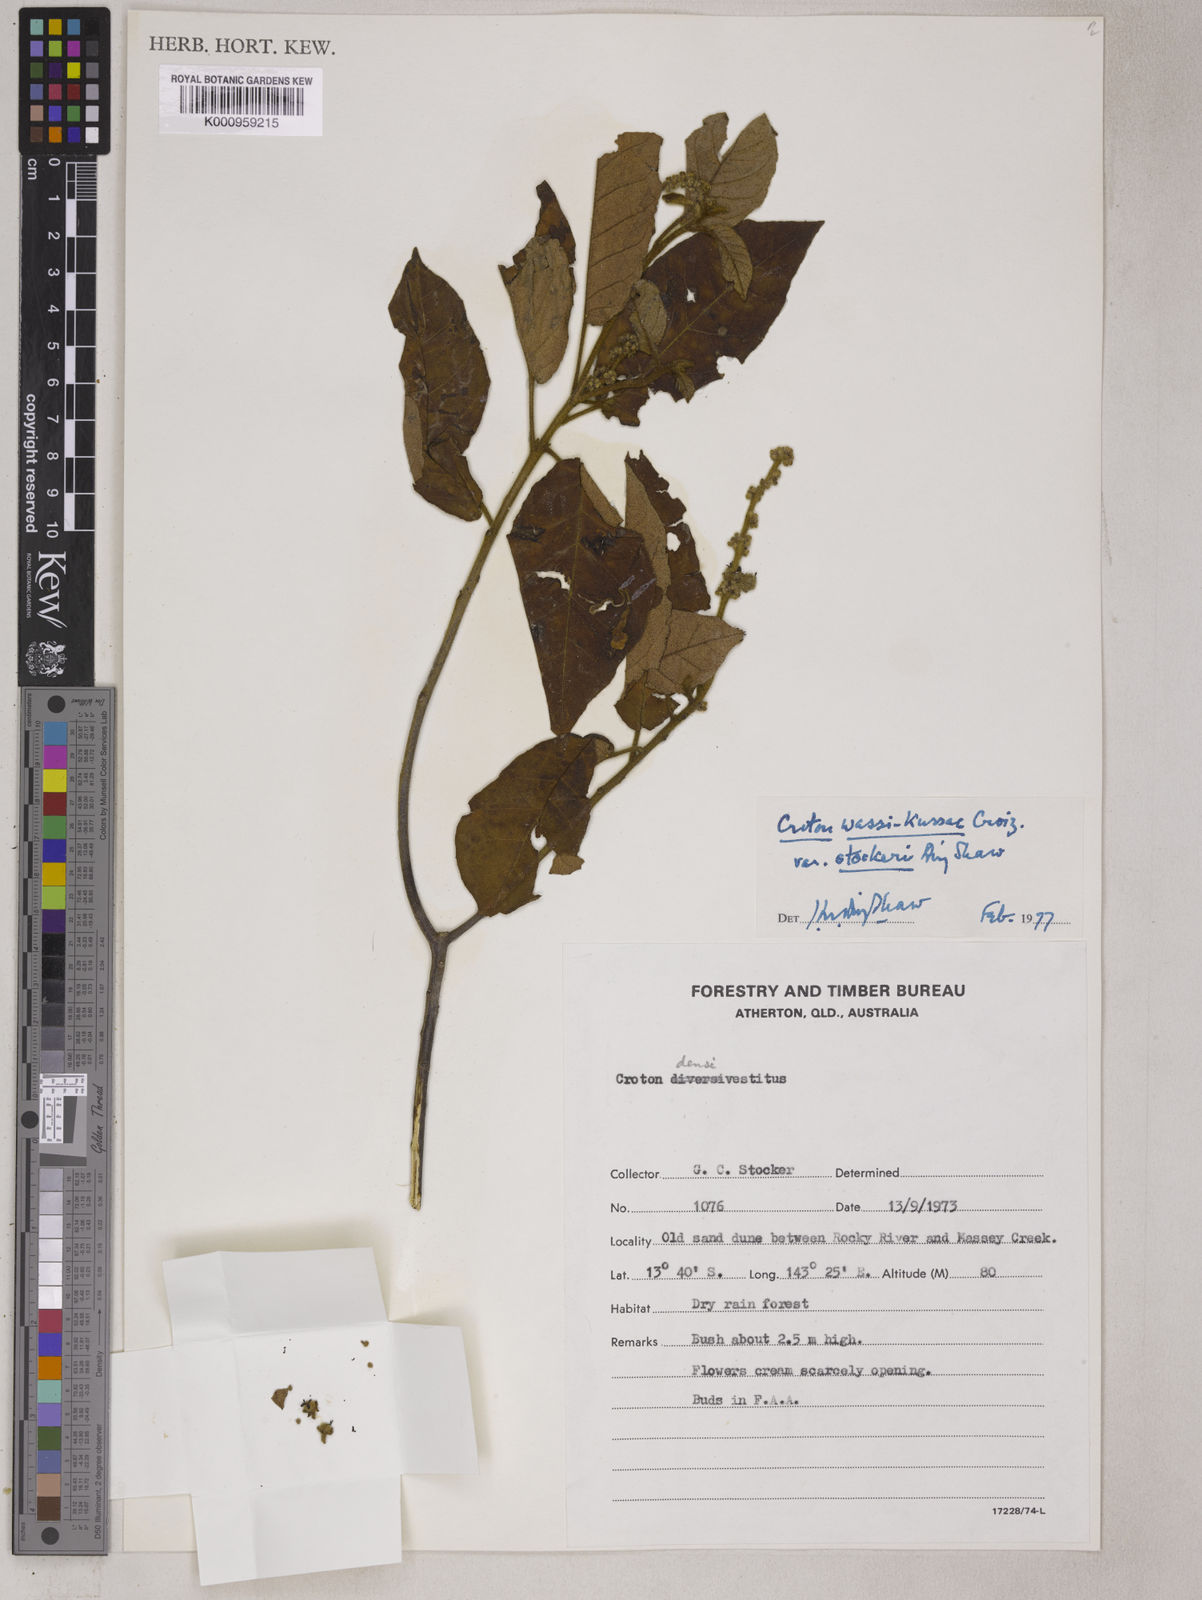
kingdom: Plantae
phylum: Tracheophyta
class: Magnoliopsida
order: Malpighiales
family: Euphorbiaceae
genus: Croton
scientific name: Croton stockeri
